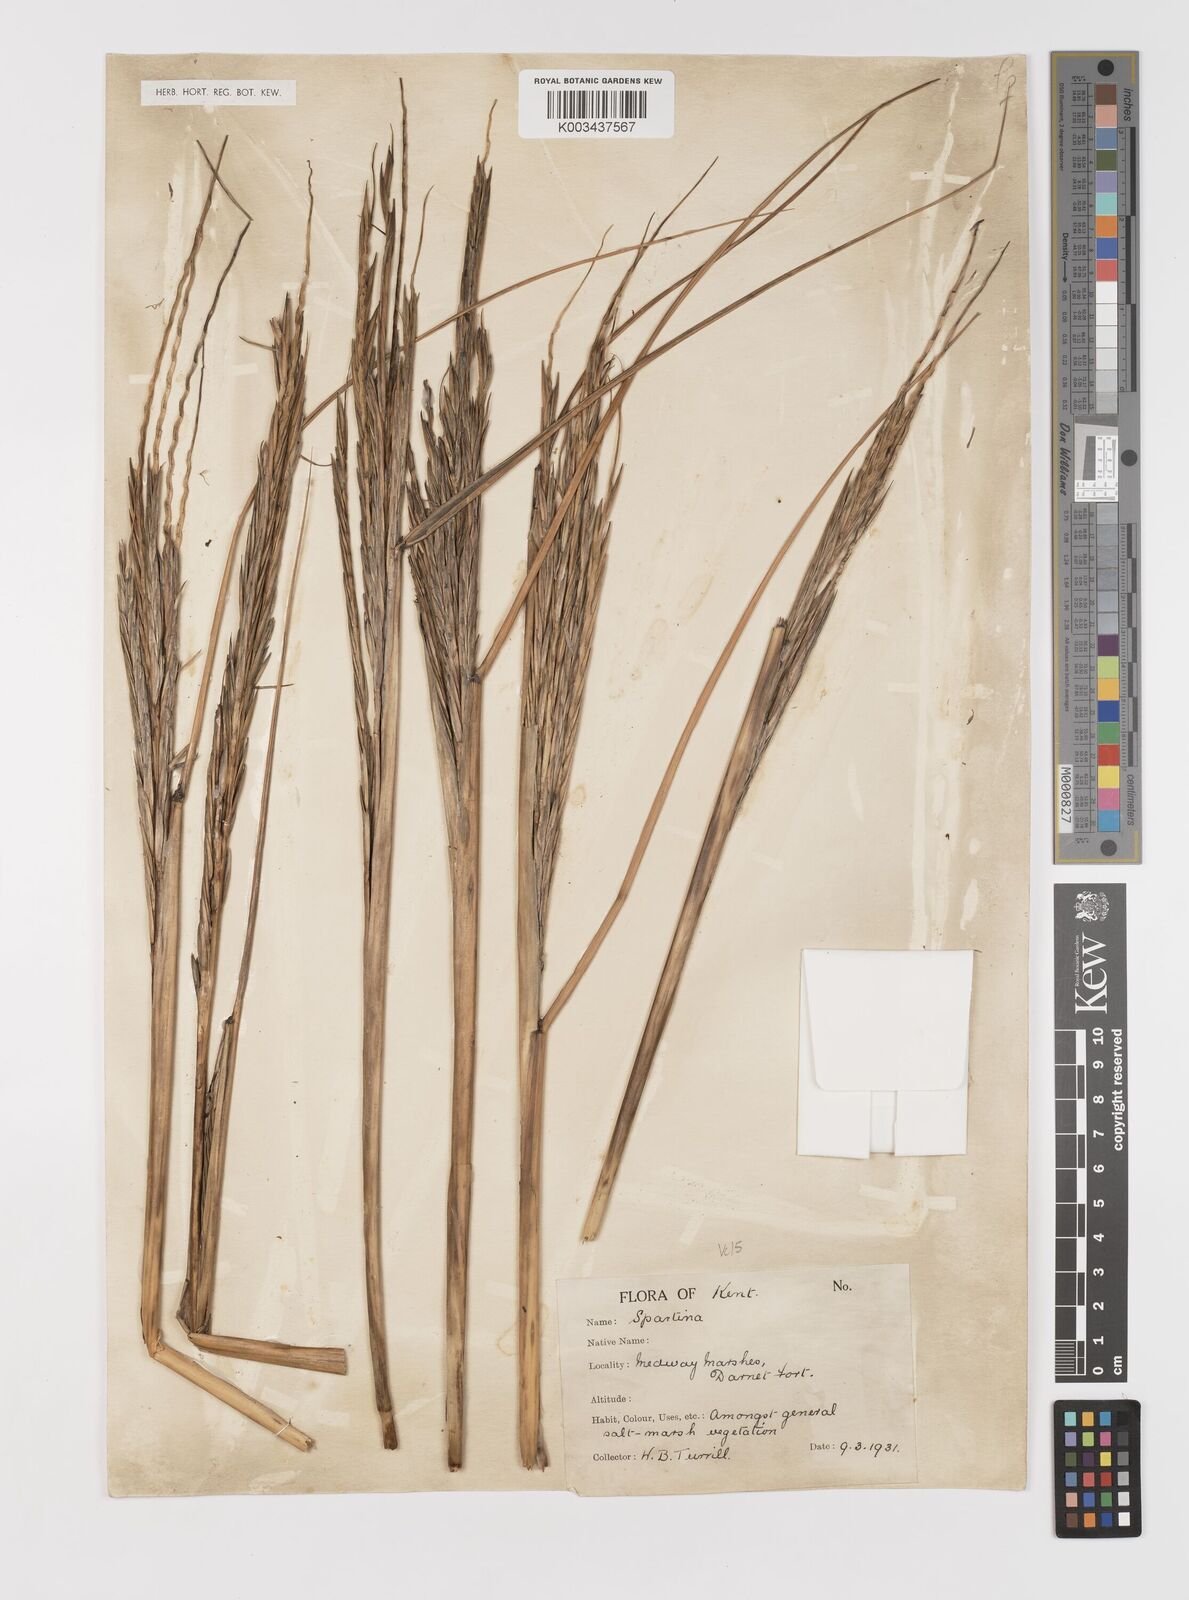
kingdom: Plantae
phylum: Tracheophyta
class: Liliopsida
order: Poales
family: Poaceae
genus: Sporobolus
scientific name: Sporobolus anglicus
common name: English cordgrass
